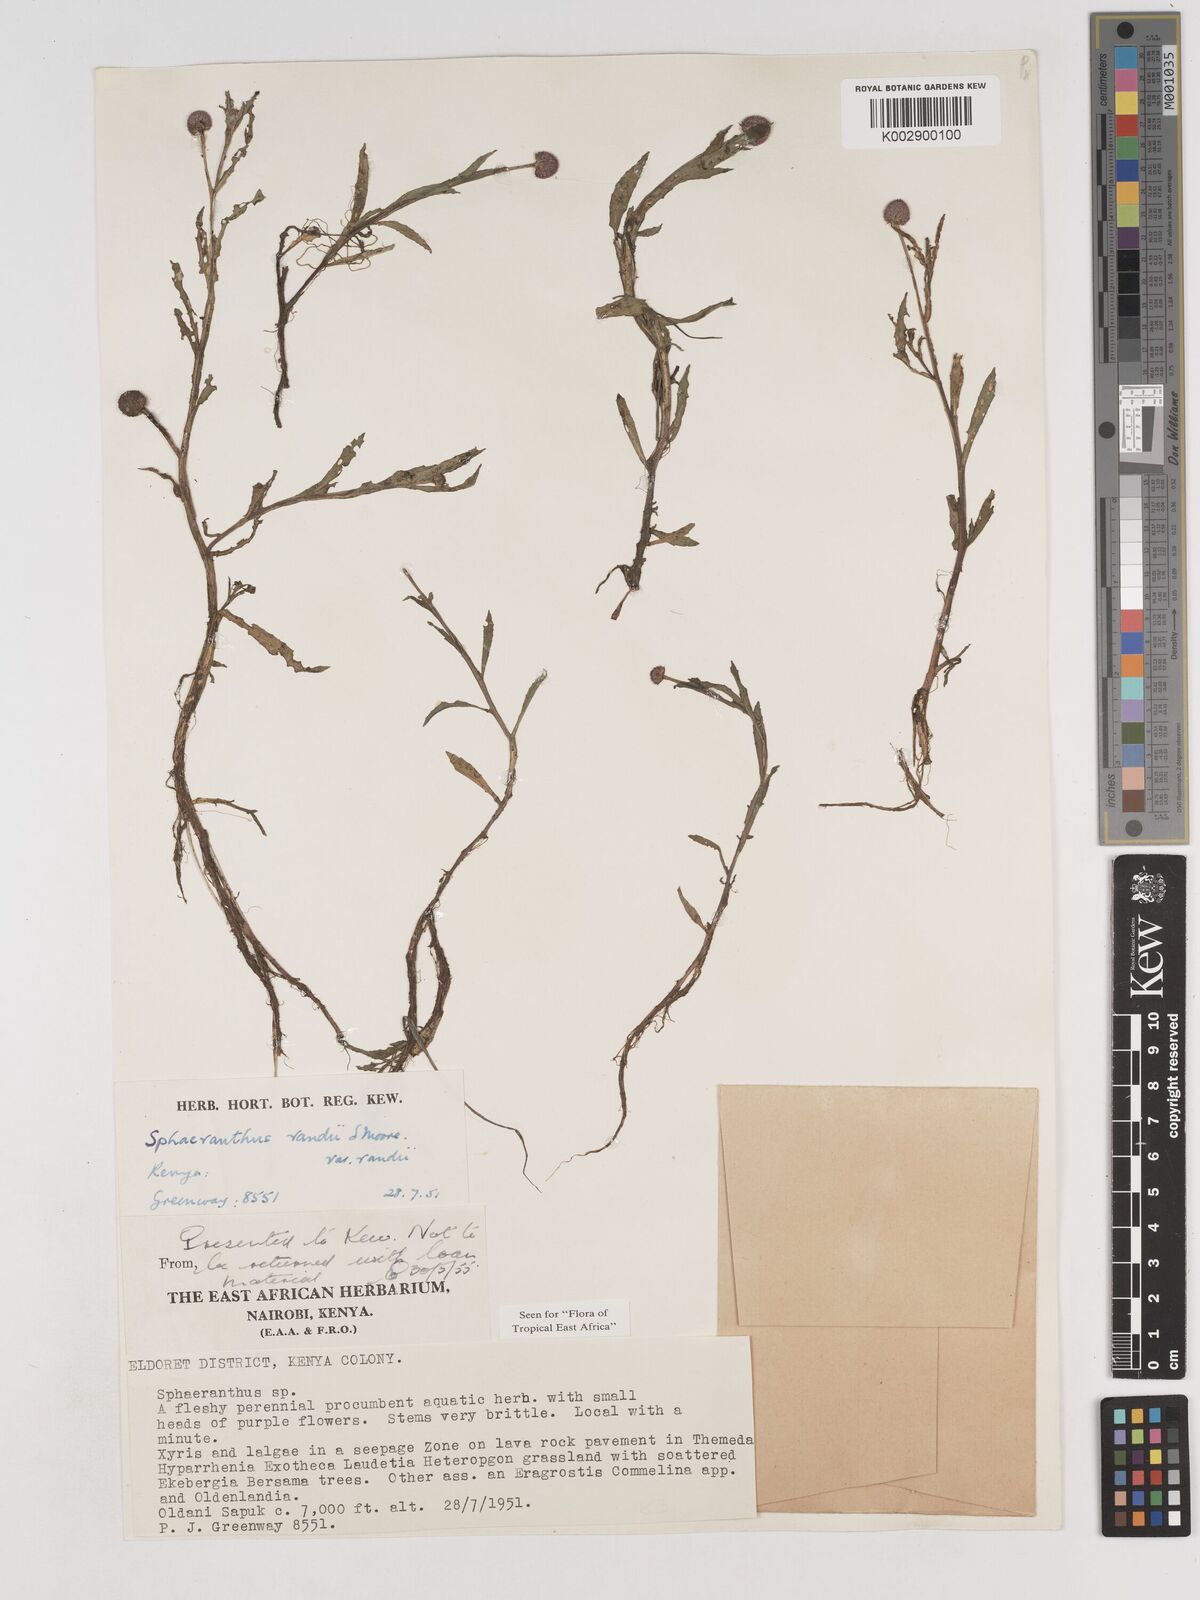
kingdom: Plantae
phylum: Tracheophyta
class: Magnoliopsida
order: Asterales
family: Asteraceae
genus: Sphaeranthus
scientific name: Sphaeranthus randii
